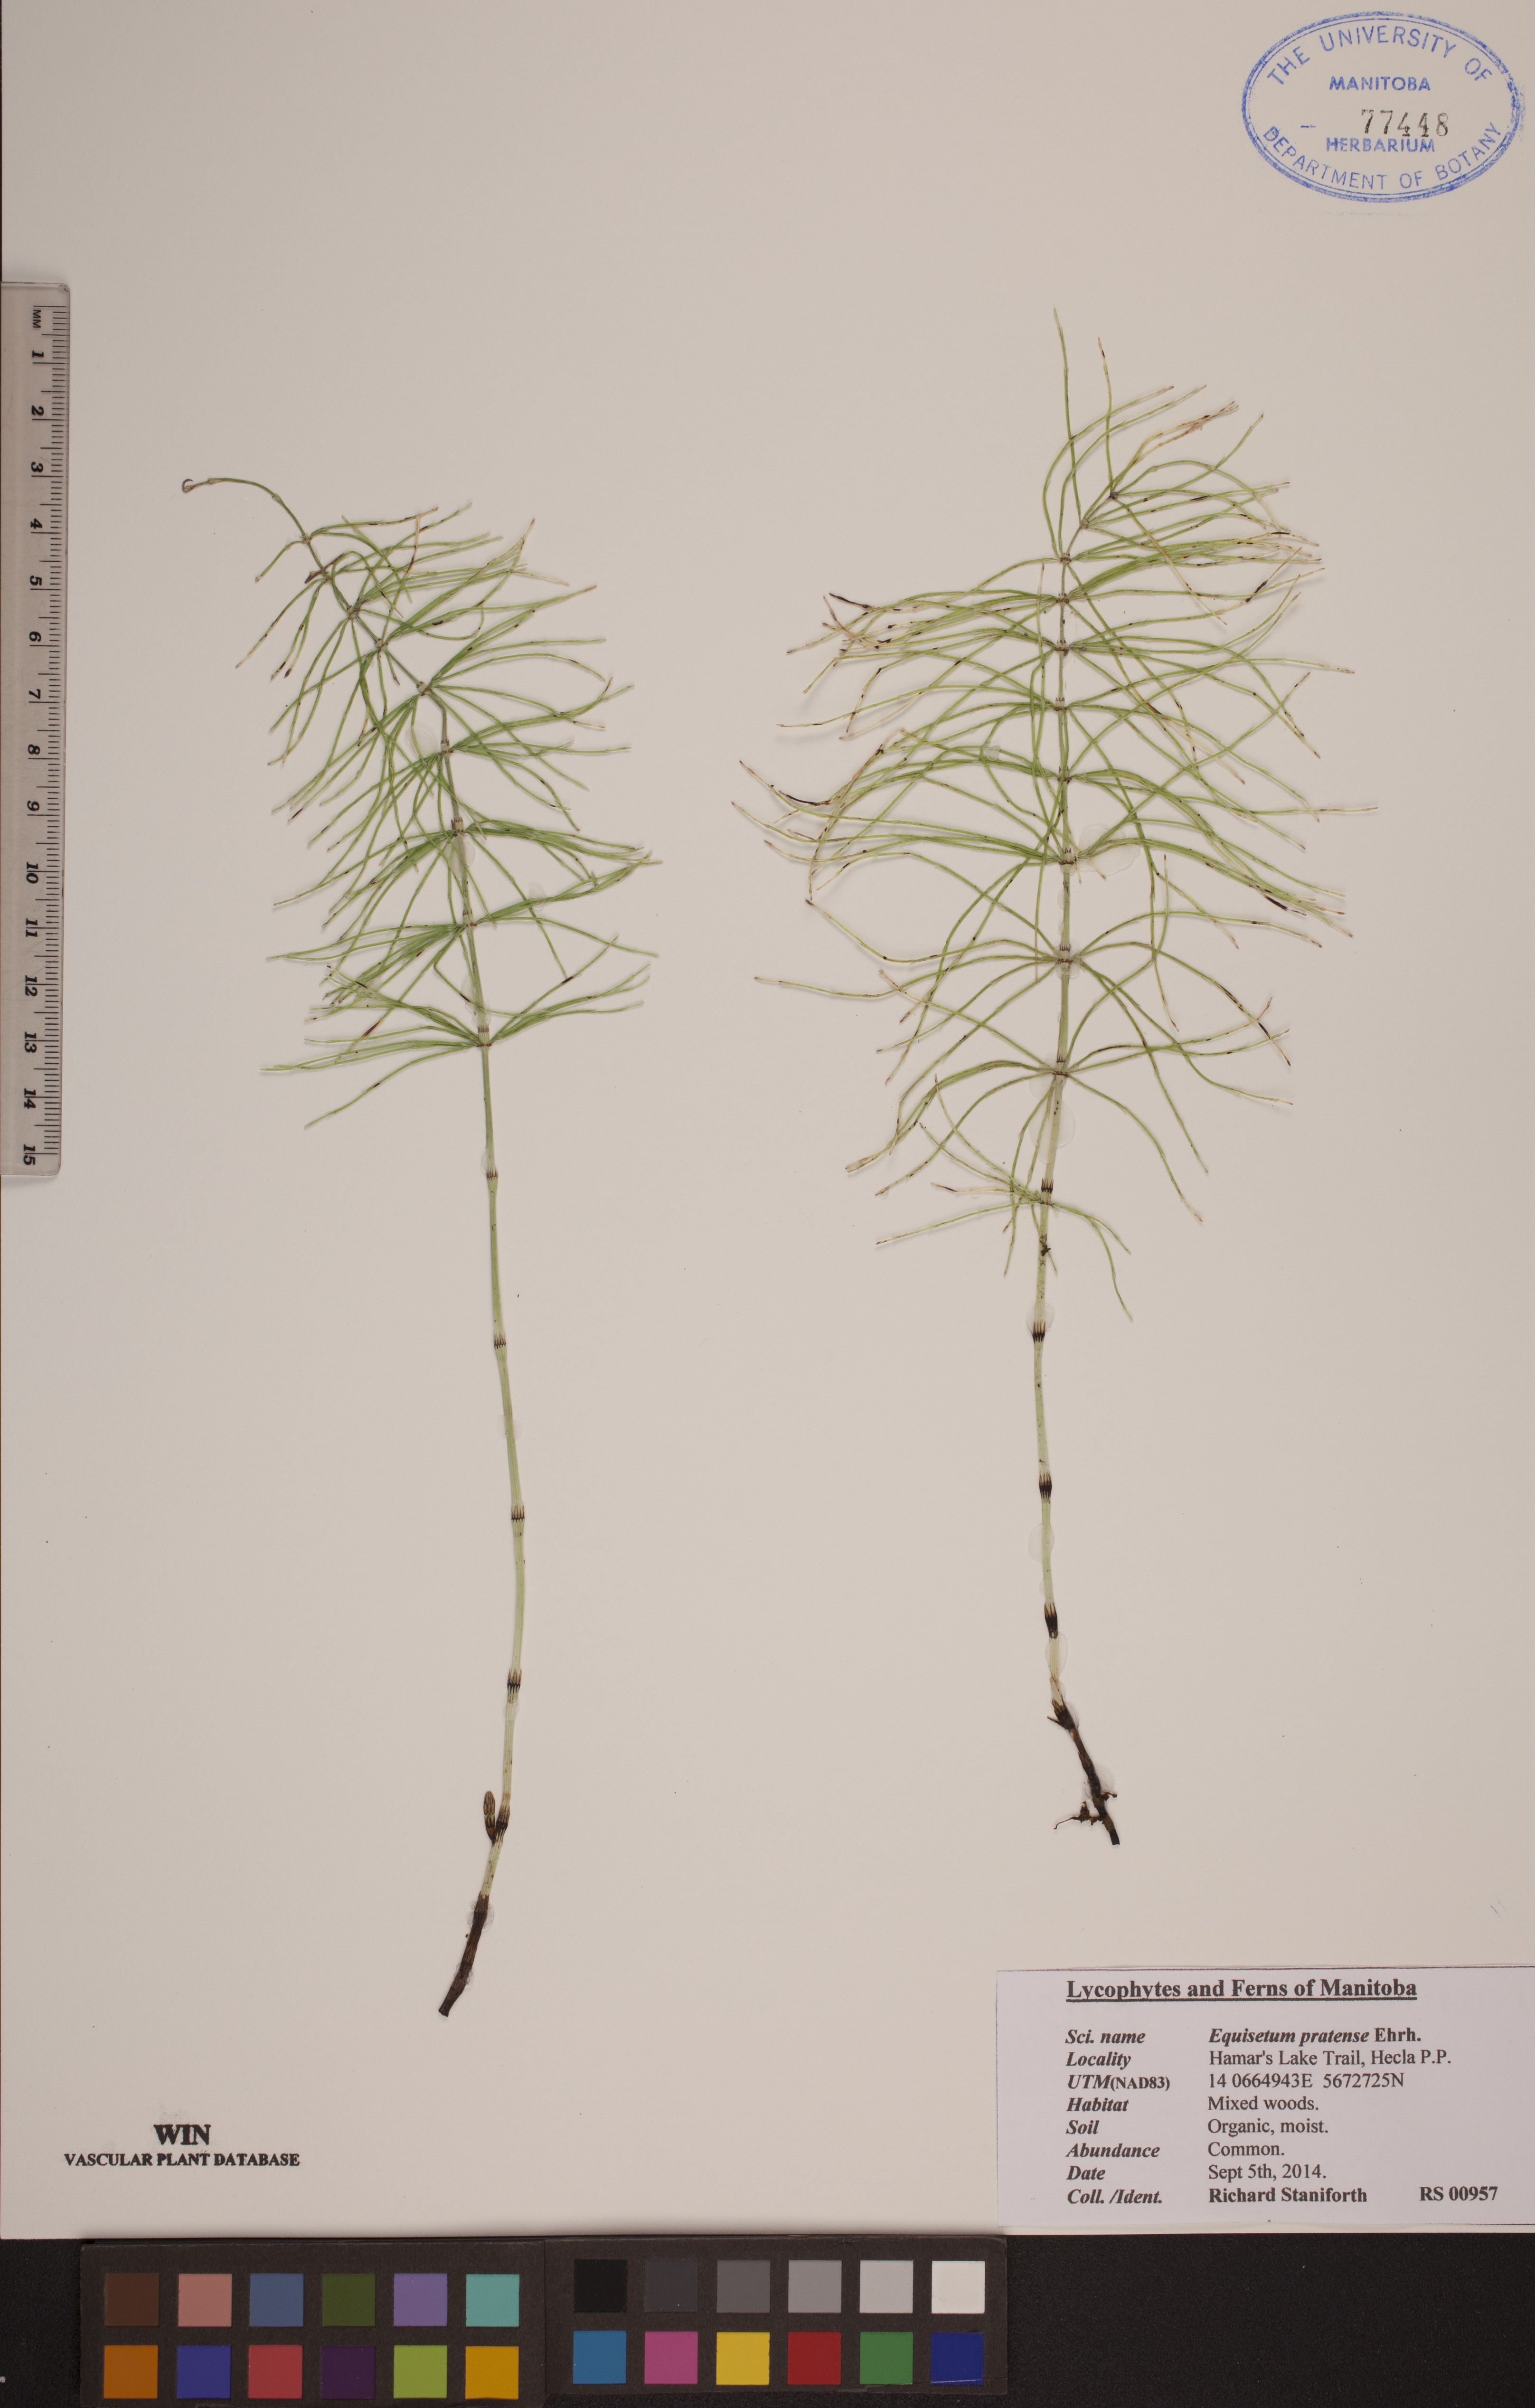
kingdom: Plantae
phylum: Tracheophyta
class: Polypodiopsida
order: Equisetales
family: Equisetaceae
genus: Equisetum
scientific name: Equisetum pratense
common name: Meadow horsetail
